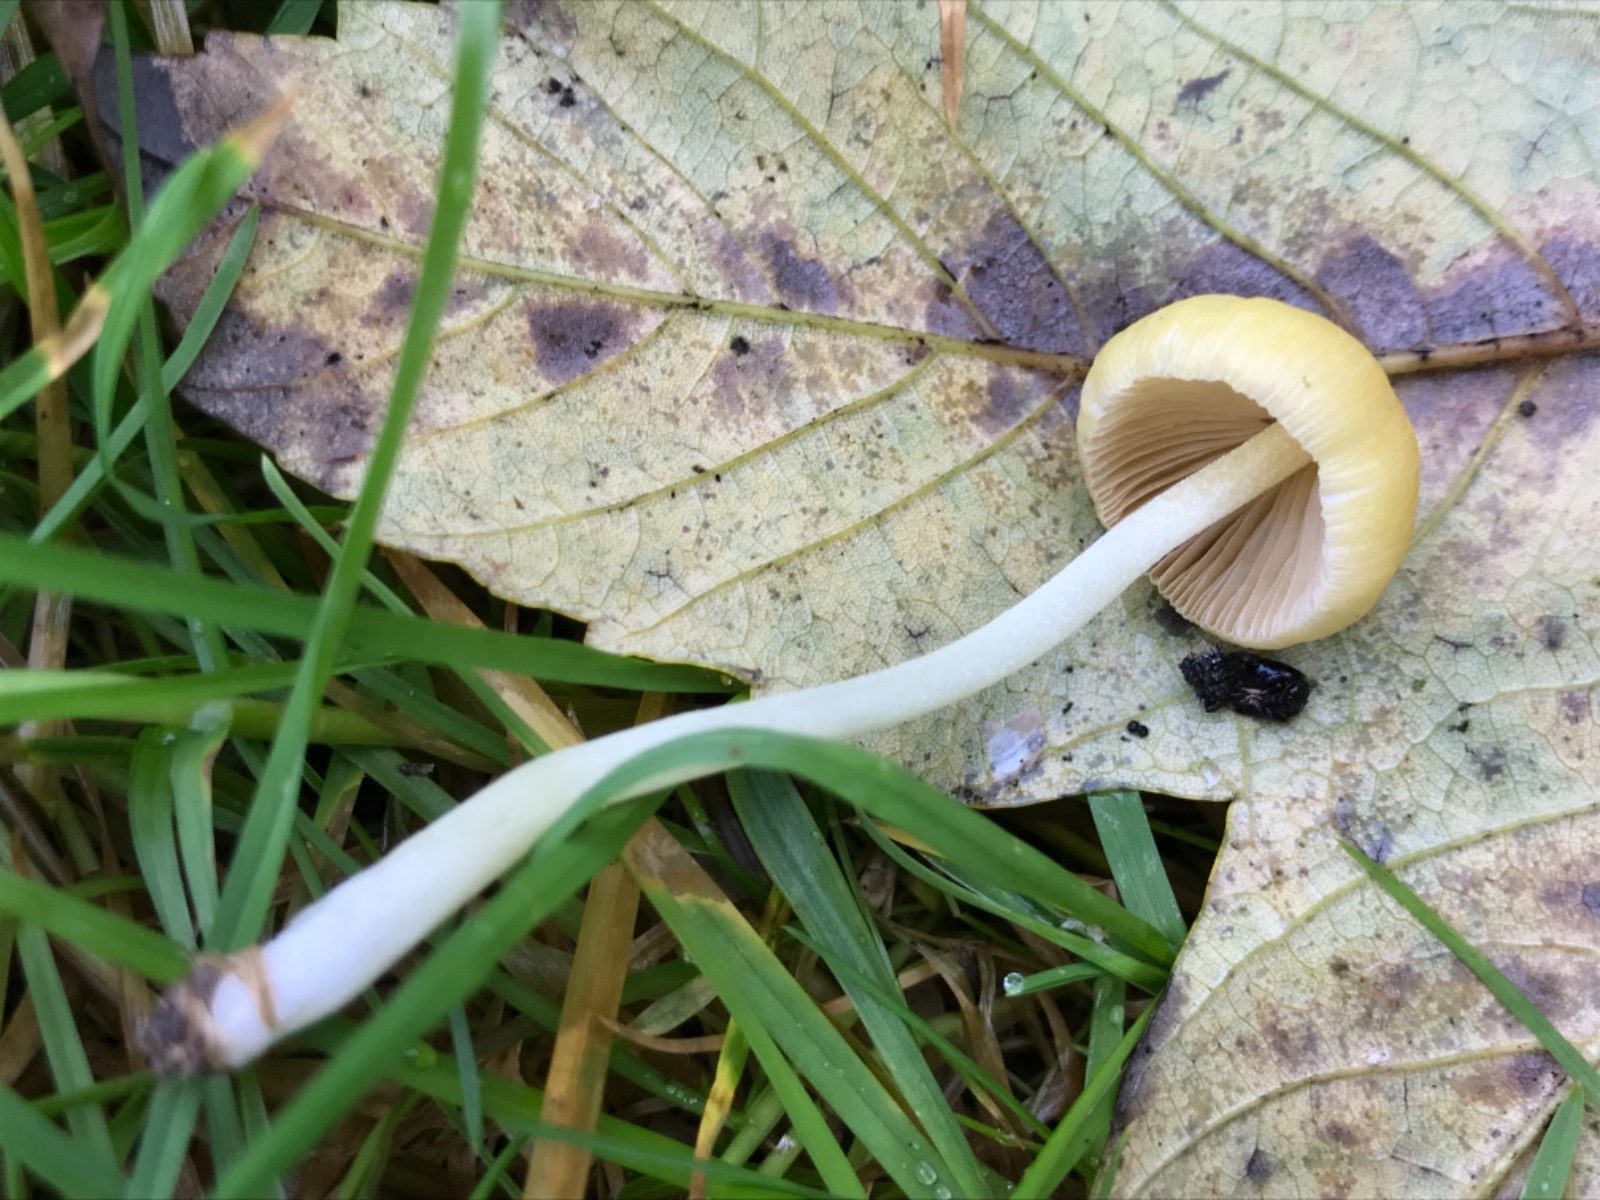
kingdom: Fungi
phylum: Basidiomycota
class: Agaricomycetes
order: Agaricales
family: Bolbitiaceae
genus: Bolbitius
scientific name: Bolbitius titubans
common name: almindelig gulhat
